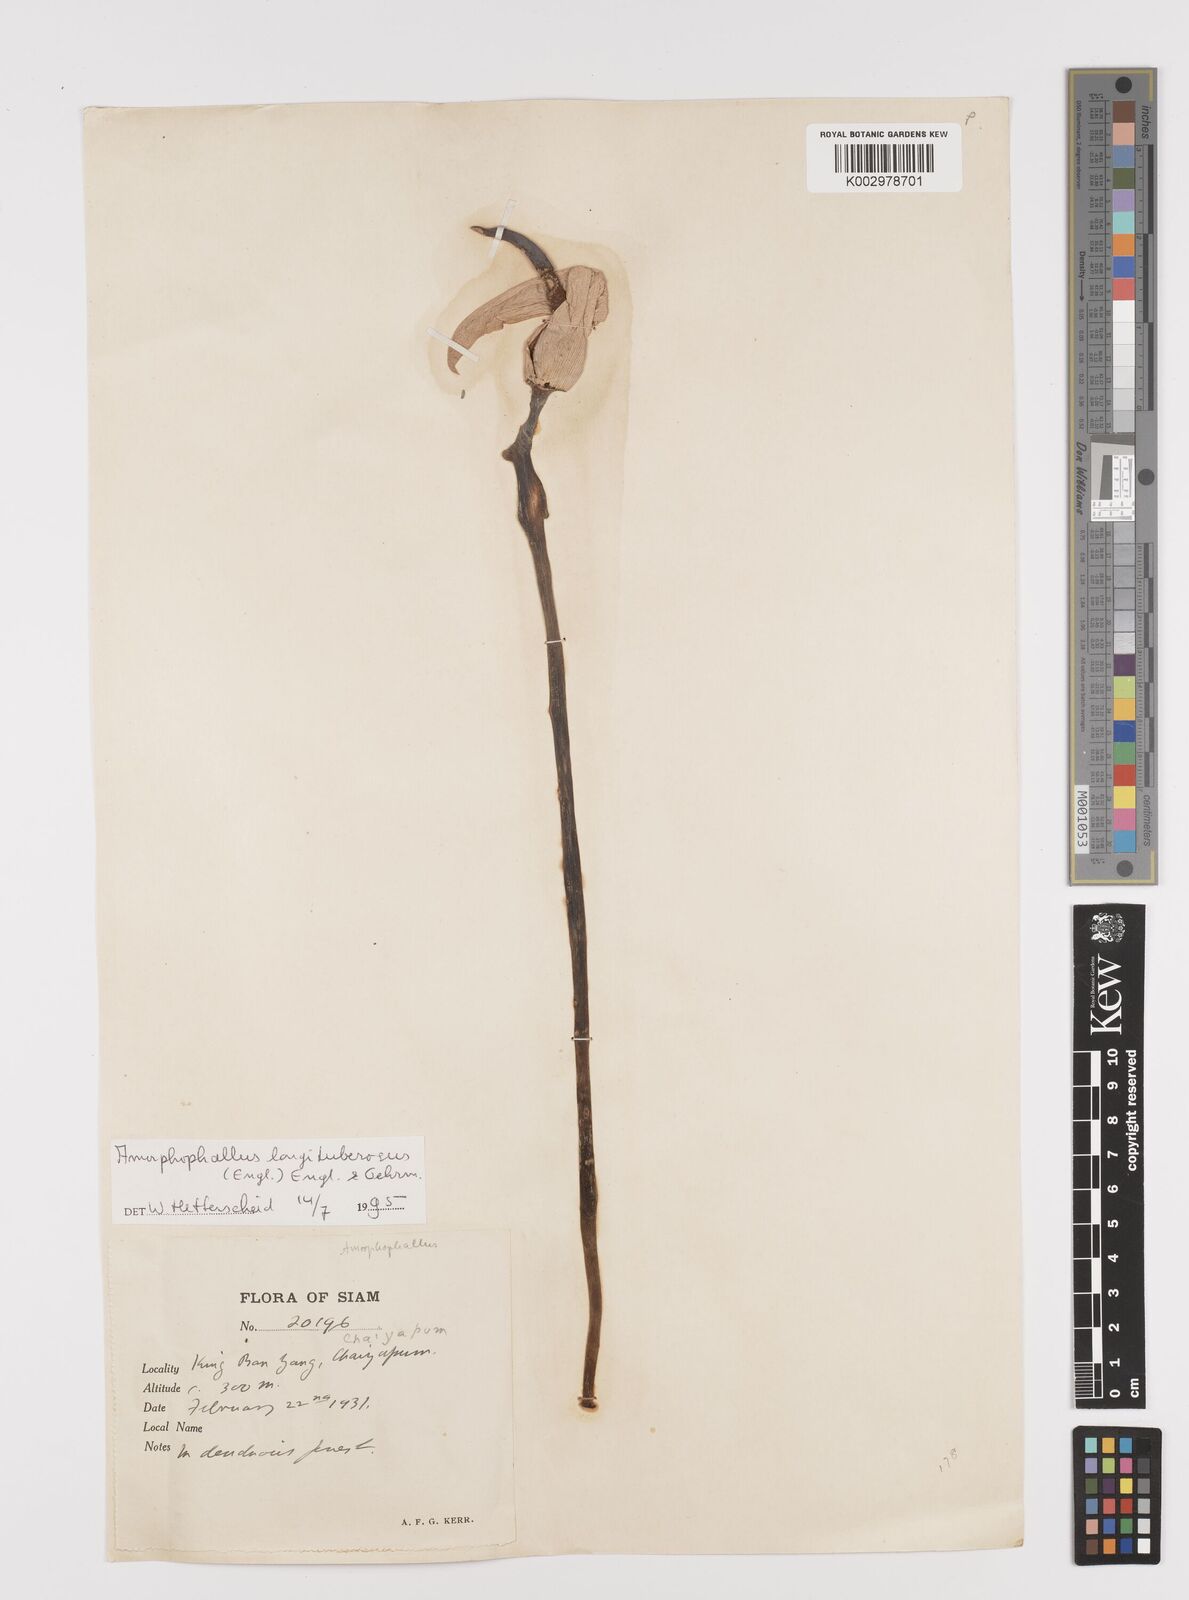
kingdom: Plantae
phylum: Tracheophyta
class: Liliopsida
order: Alismatales
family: Araceae
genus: Amorphophallus
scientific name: Amorphophallus longituberosus
